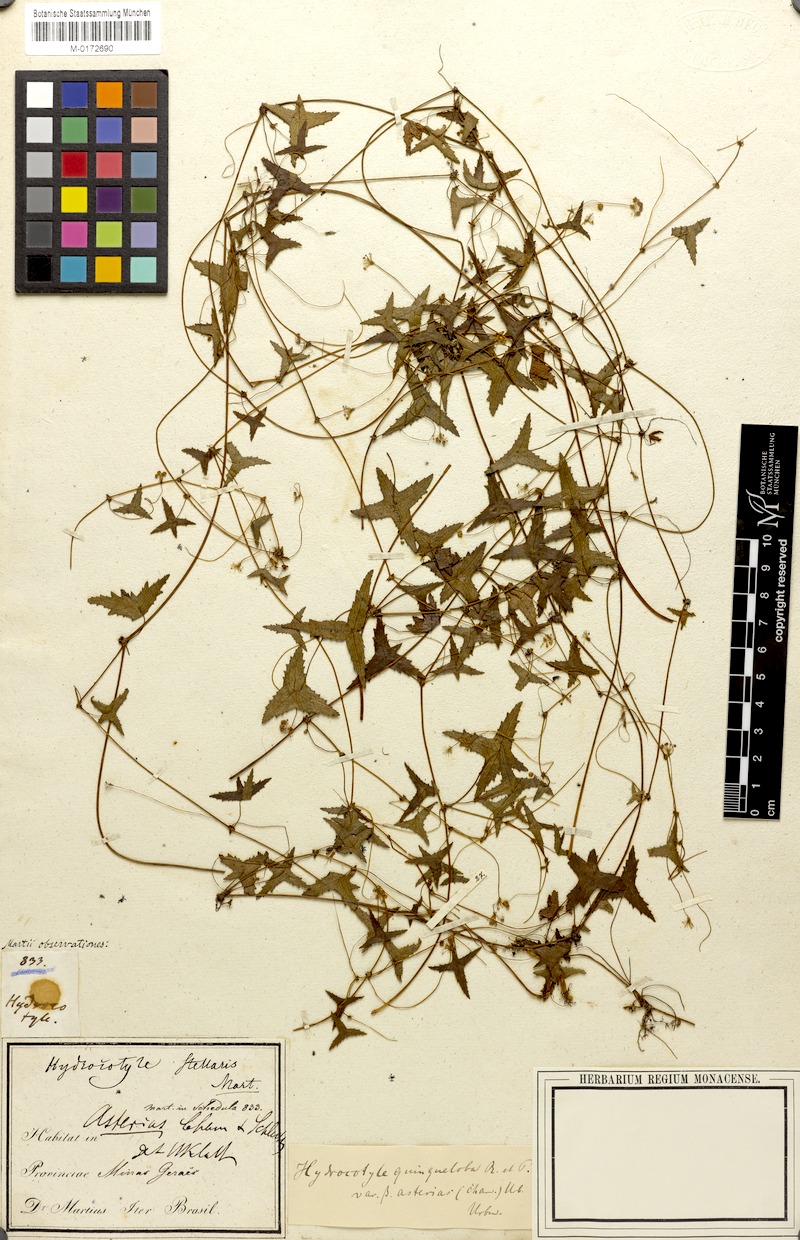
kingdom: Plantae
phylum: Tracheophyta
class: Magnoliopsida
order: Apiales
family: Araliaceae
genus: Hydrocotyle
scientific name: Hydrocotyle quinqueloba
